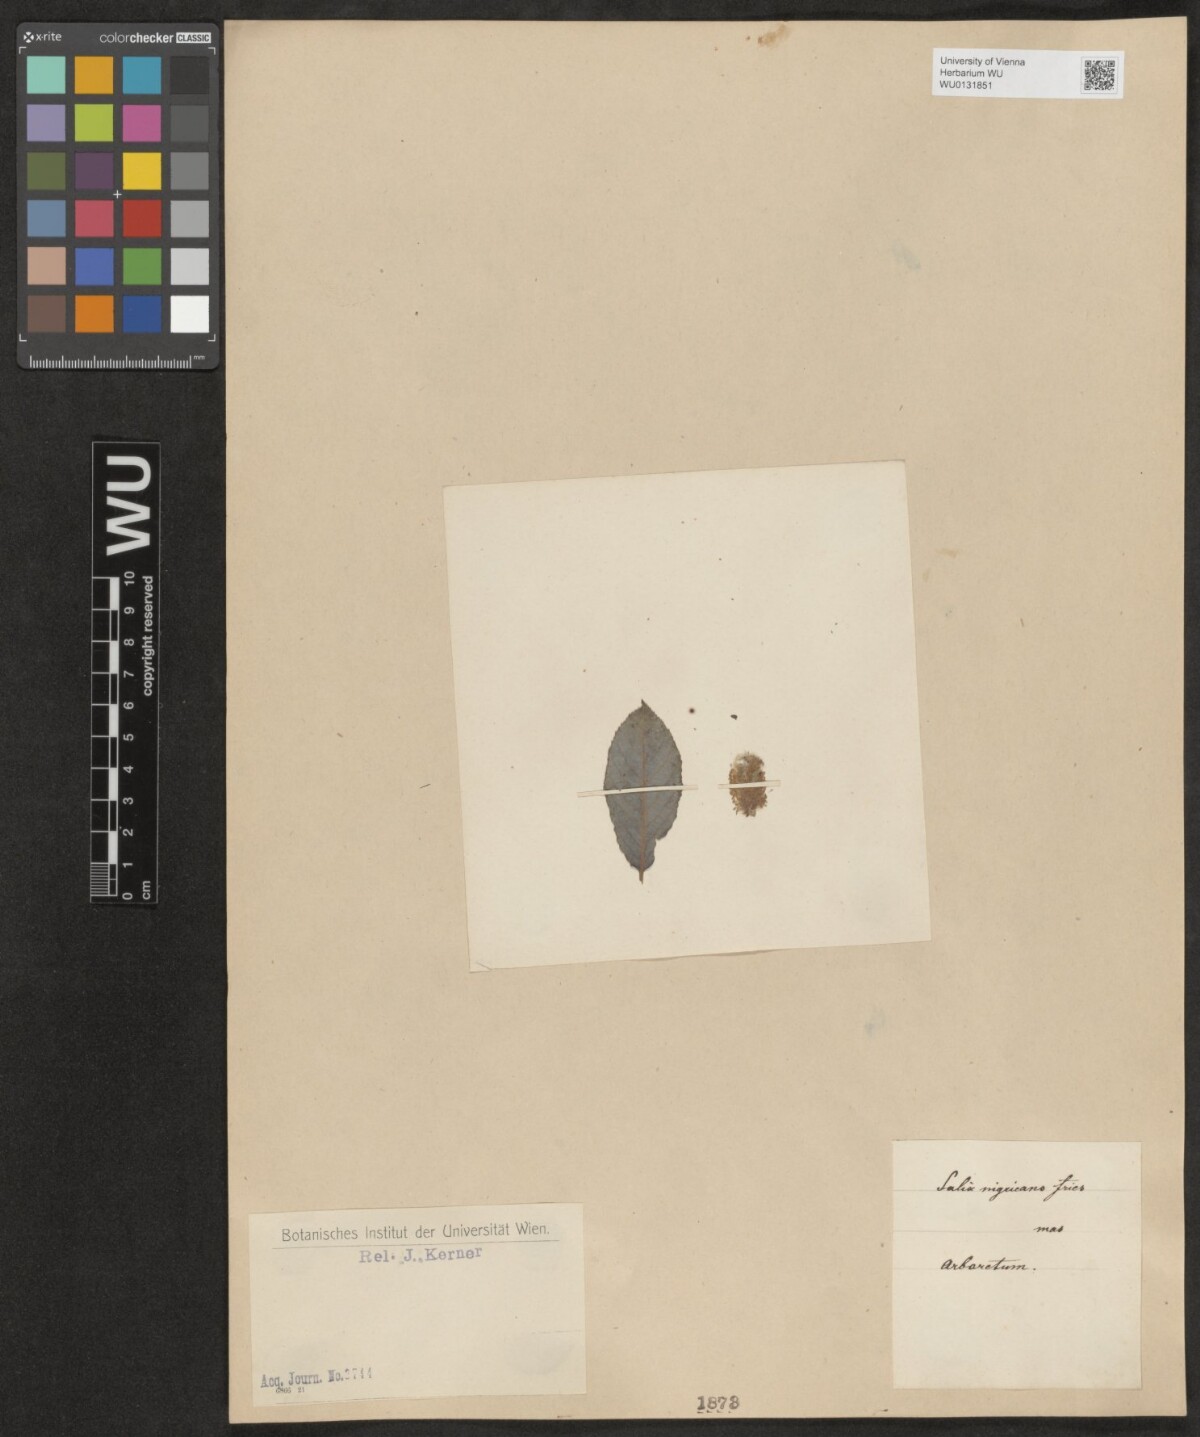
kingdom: Plantae
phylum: Tracheophyta
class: Magnoliopsida
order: Malpighiales
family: Salicaceae
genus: Salix
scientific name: Salix myrsinifolia
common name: Dark-leaved willow
